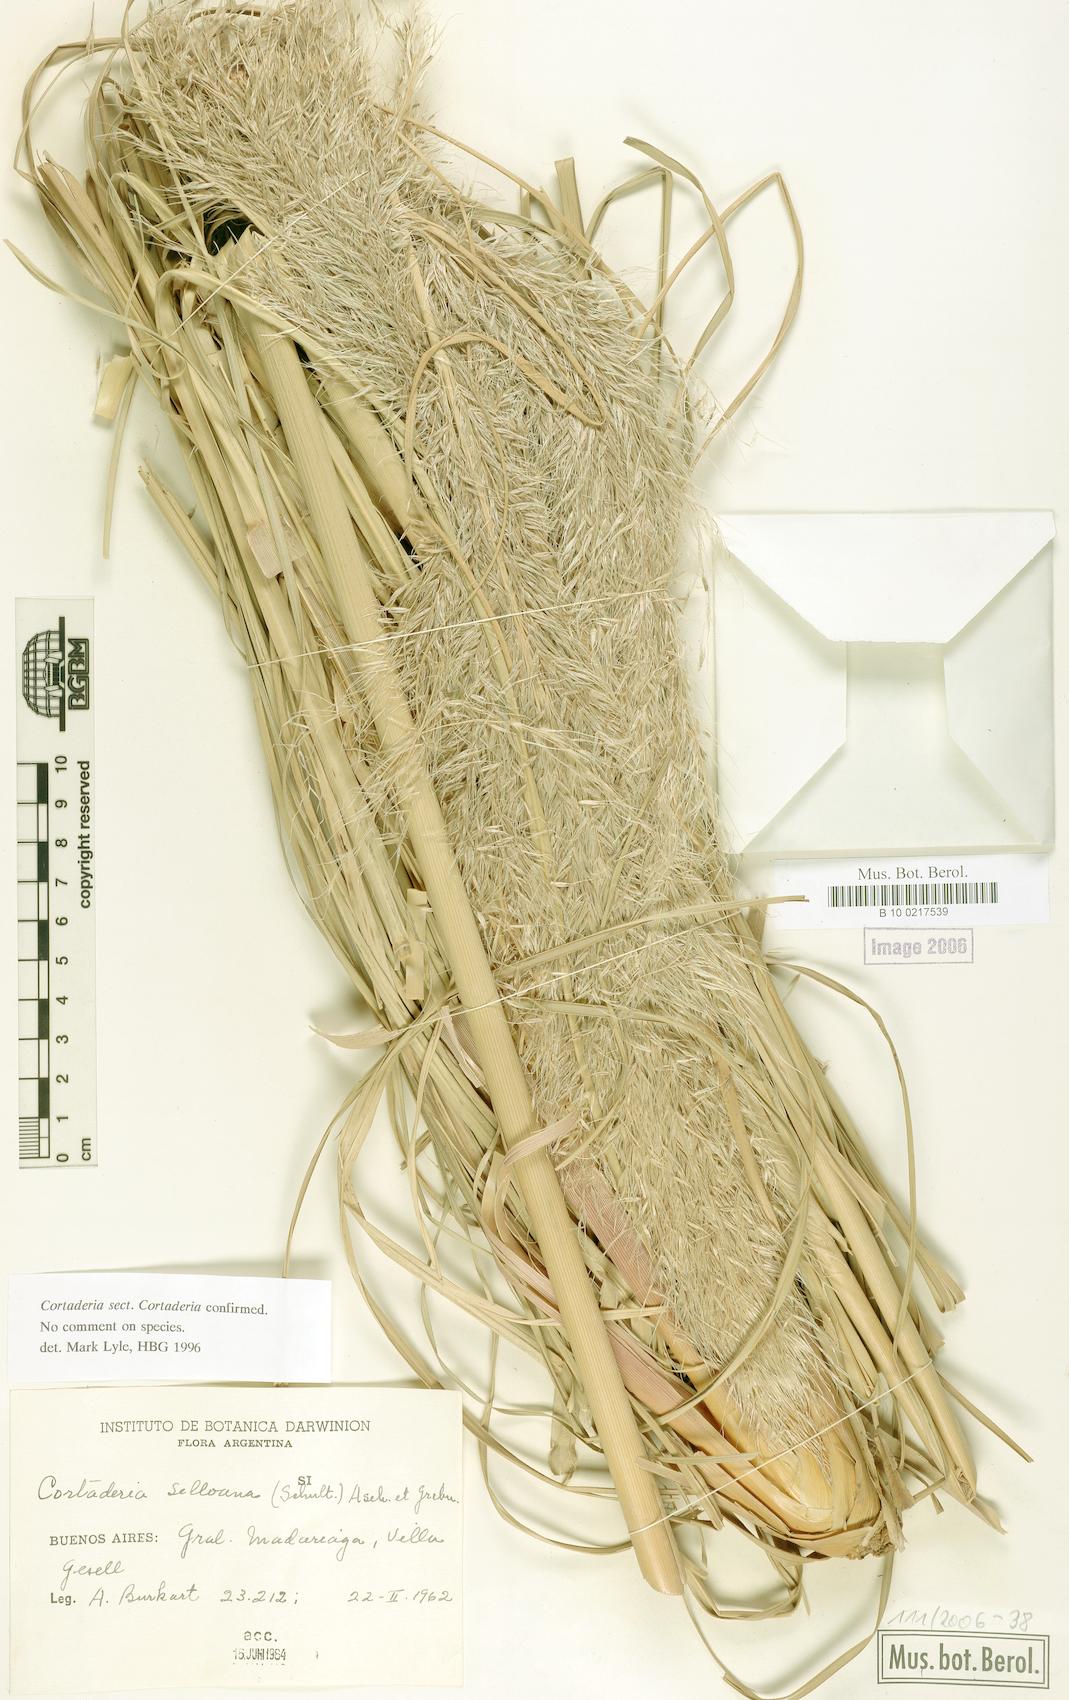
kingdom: Plantae
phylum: Tracheophyta
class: Liliopsida
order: Poales
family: Poaceae
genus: Cortaderia
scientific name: Cortaderia selloana
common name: Uruguayan pampas grass
